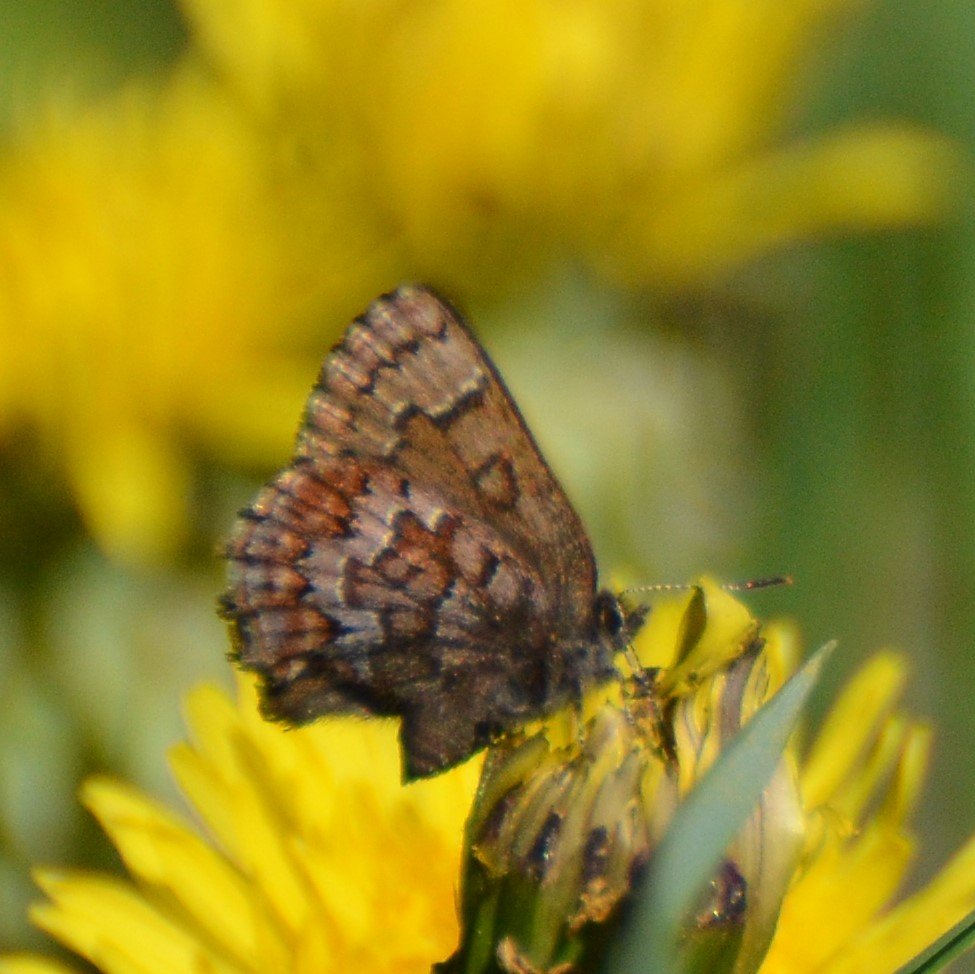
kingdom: Animalia
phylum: Arthropoda
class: Insecta
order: Lepidoptera
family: Lycaenidae
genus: Incisalia
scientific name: Incisalia niphon
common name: Eastern Pine Elfin
